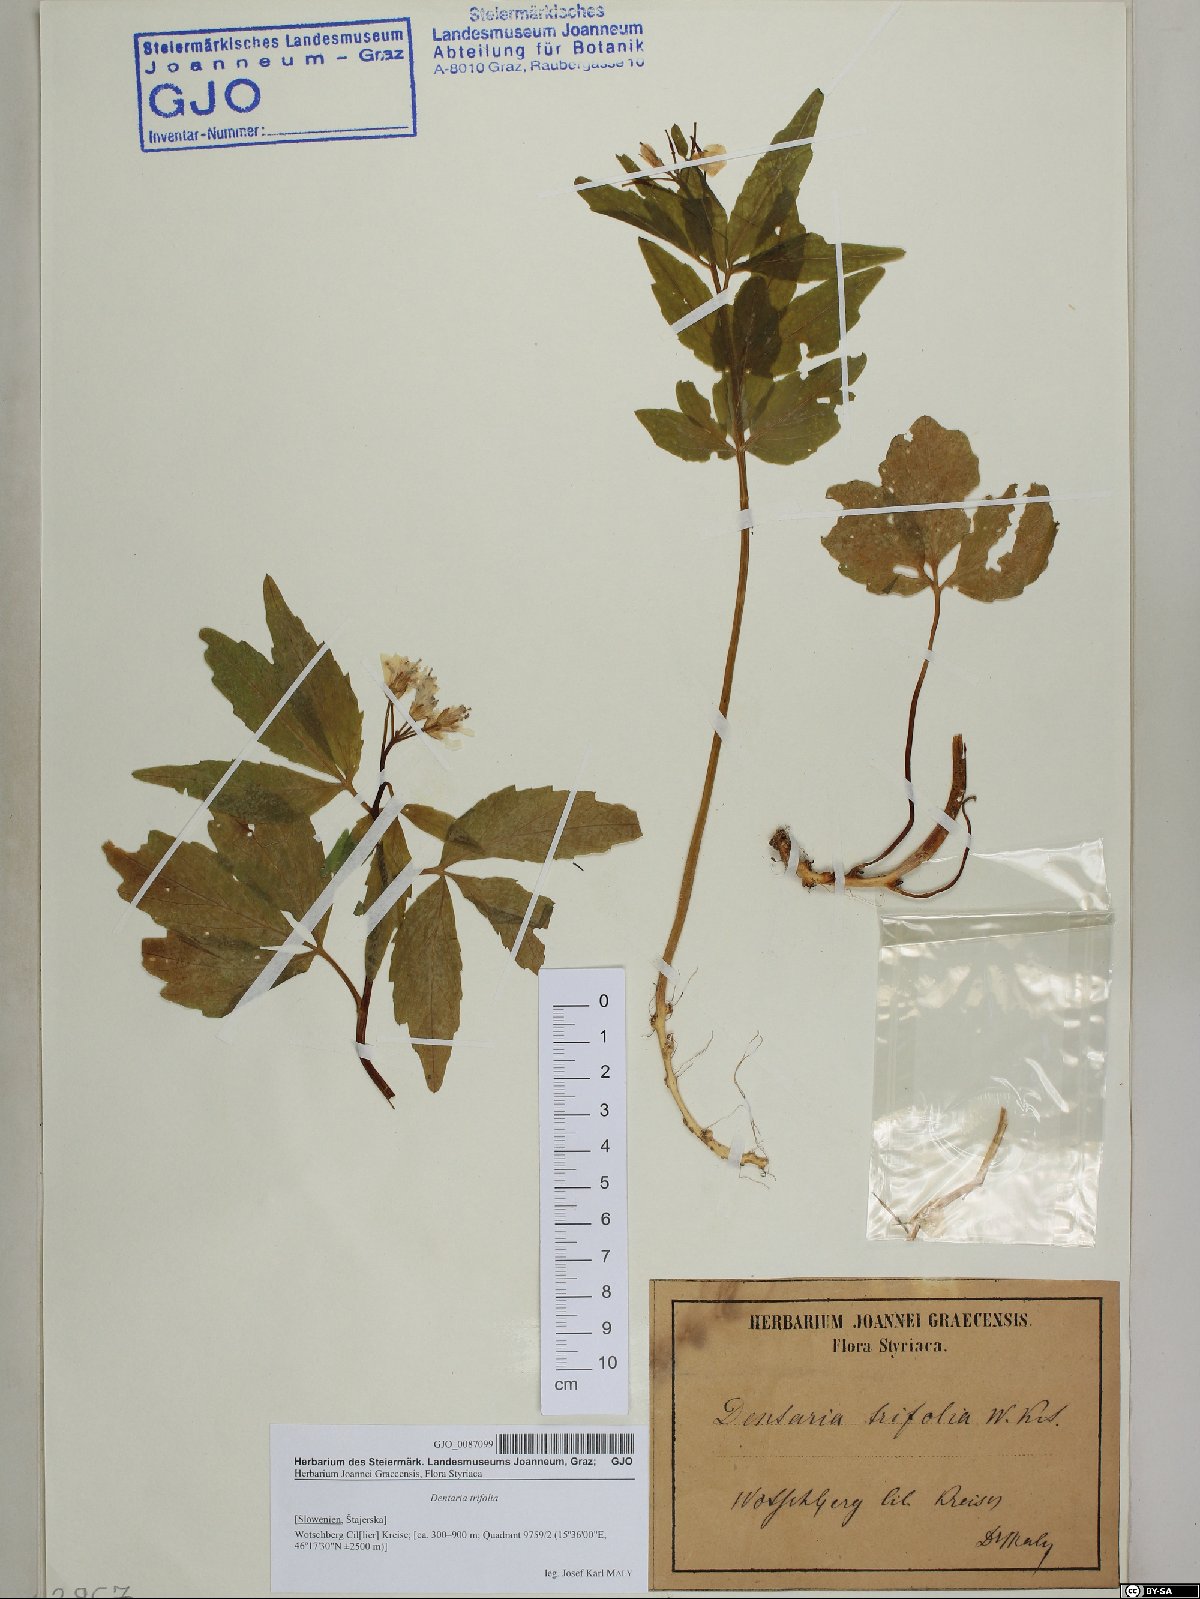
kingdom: Plantae
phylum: Tracheophyta
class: Magnoliopsida
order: Brassicales
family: Brassicaceae
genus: Cardamine
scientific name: Cardamine waldsteinii
